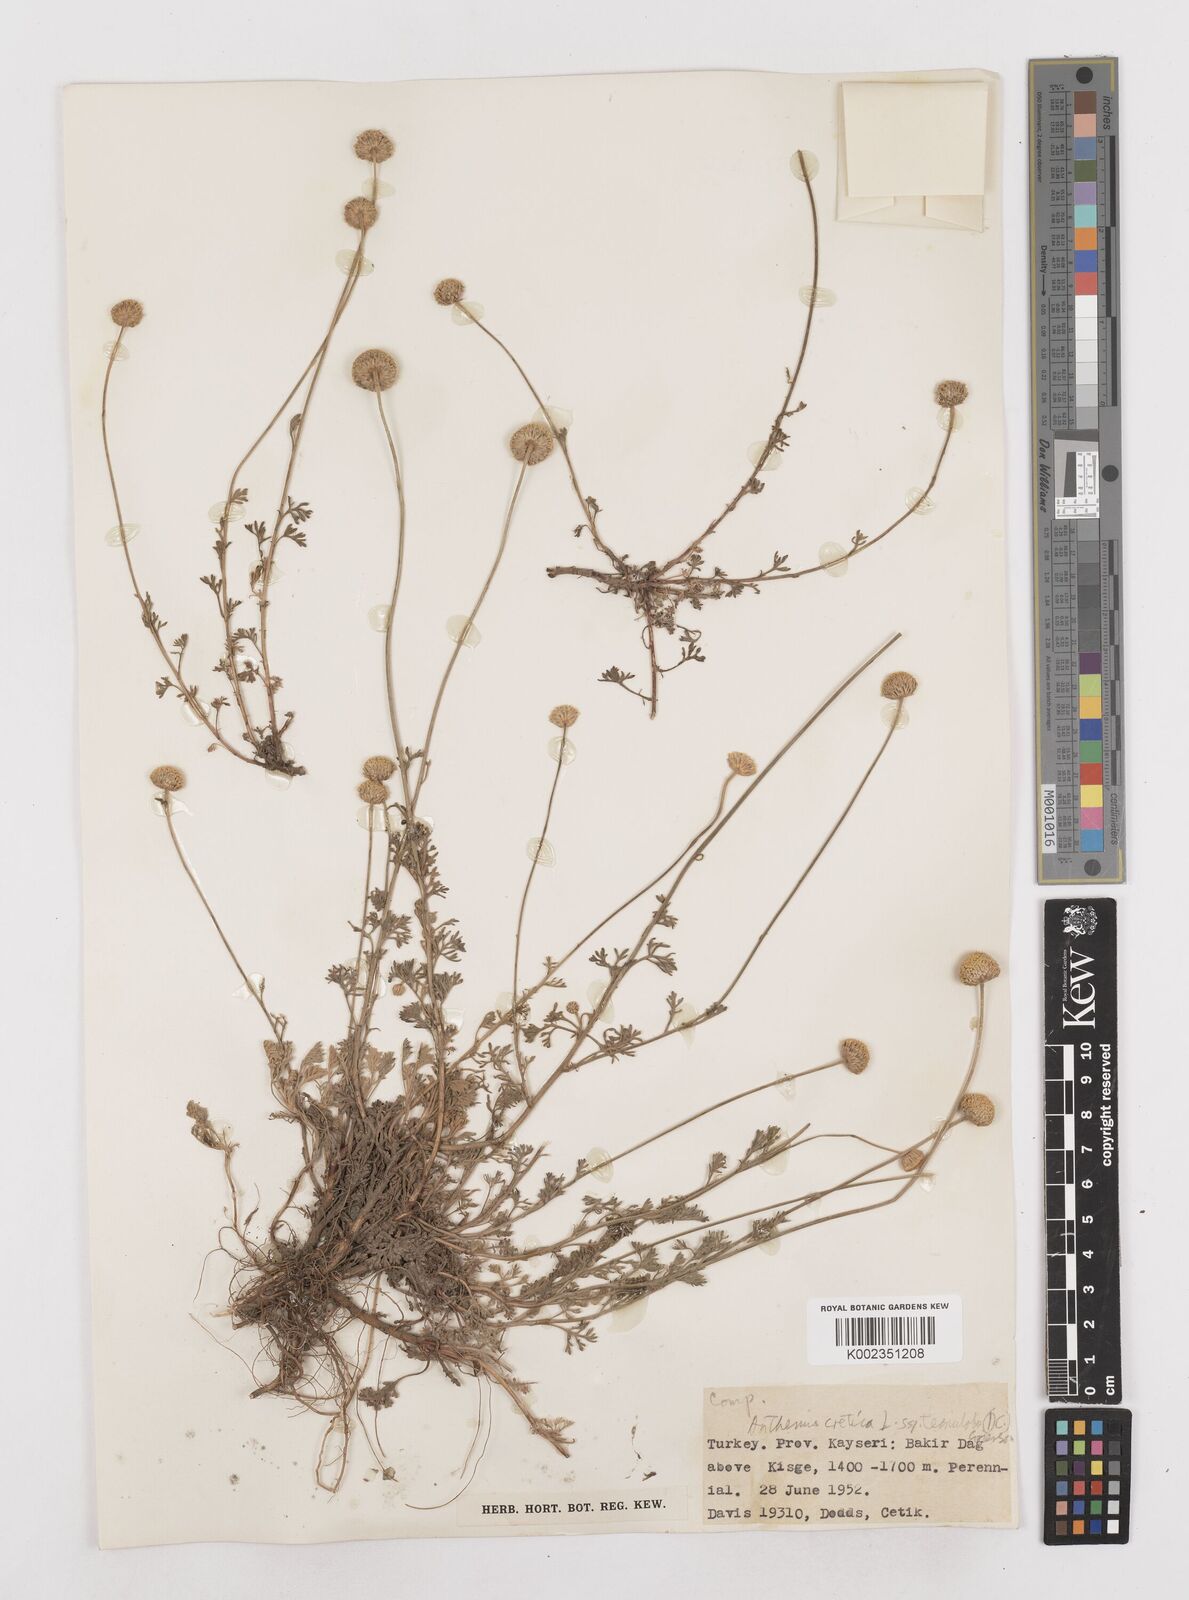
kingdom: Plantae
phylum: Tracheophyta
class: Magnoliopsida
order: Asterales
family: Asteraceae
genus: Anthemis
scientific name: Anthemis cretica
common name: Mountain dog-daisy
